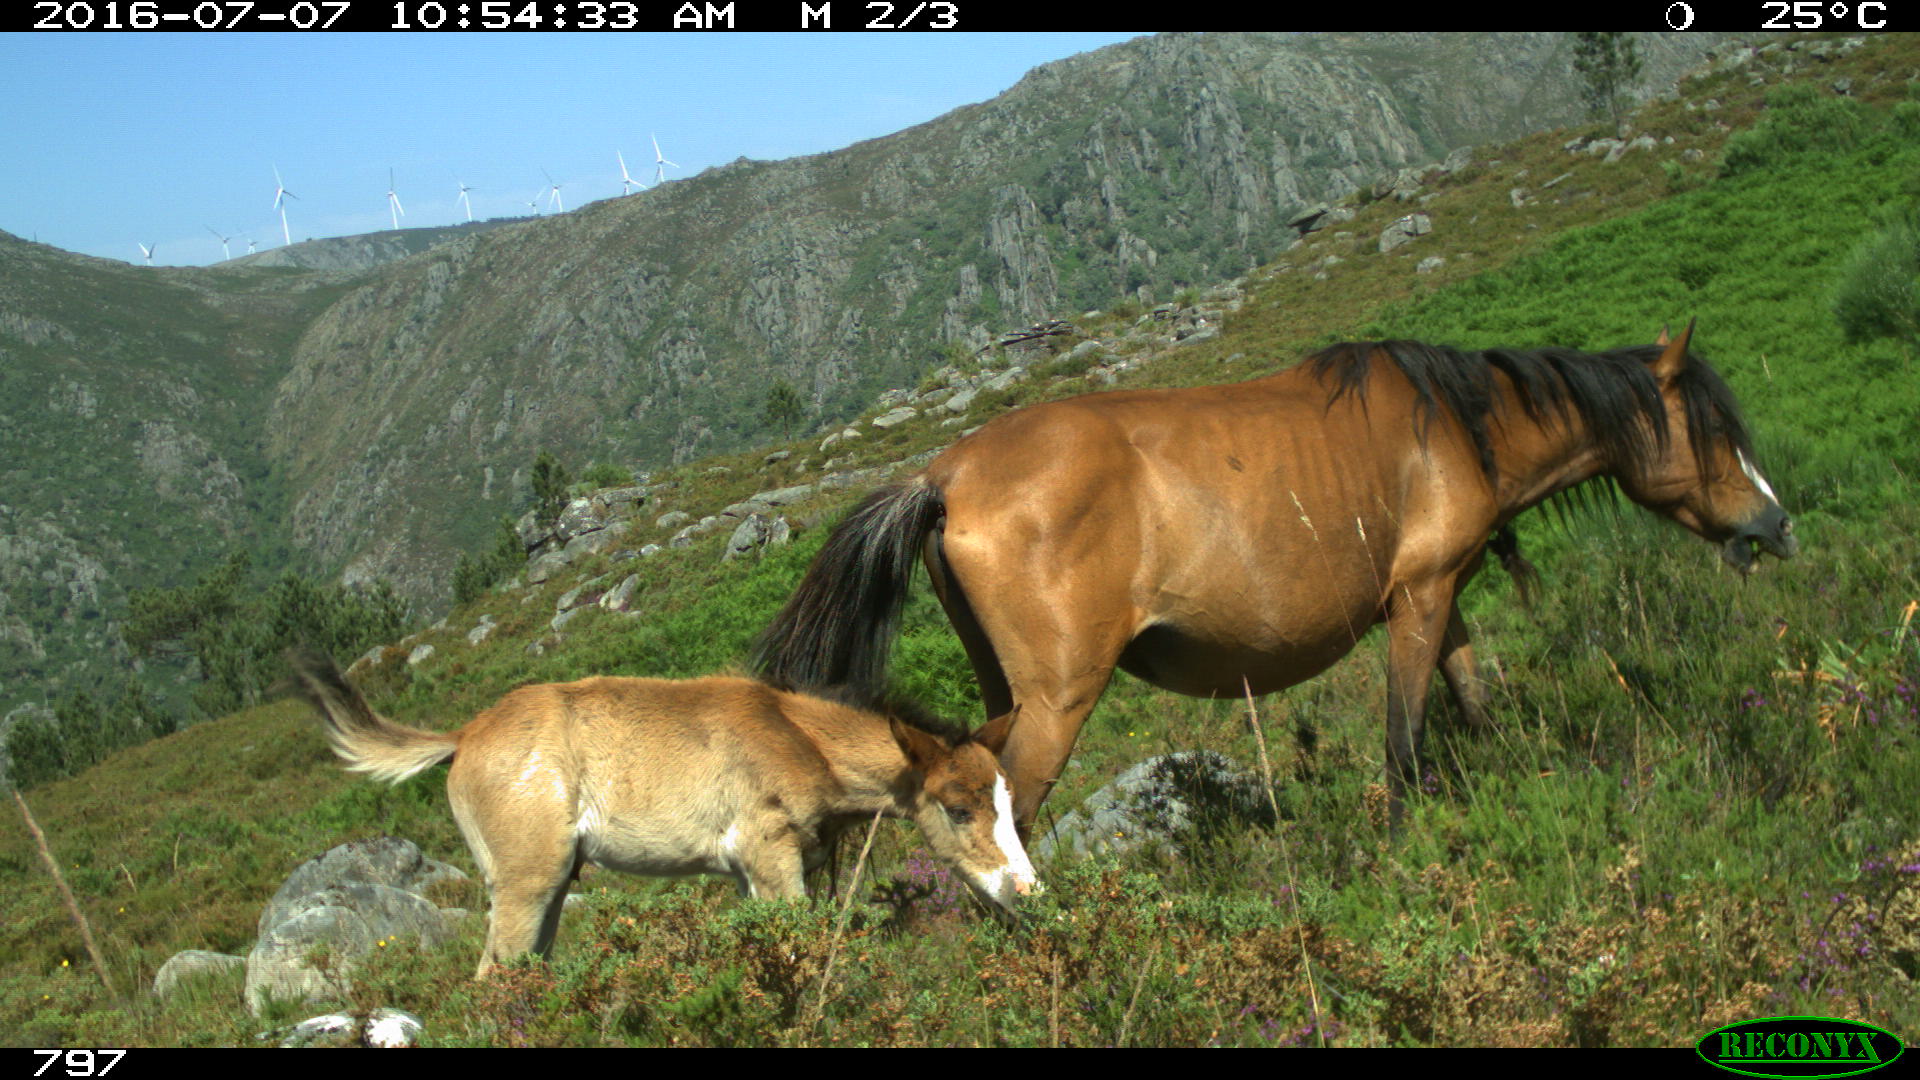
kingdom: Animalia
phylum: Chordata
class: Mammalia
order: Perissodactyla
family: Equidae
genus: Equus
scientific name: Equus caballus
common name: Horse
